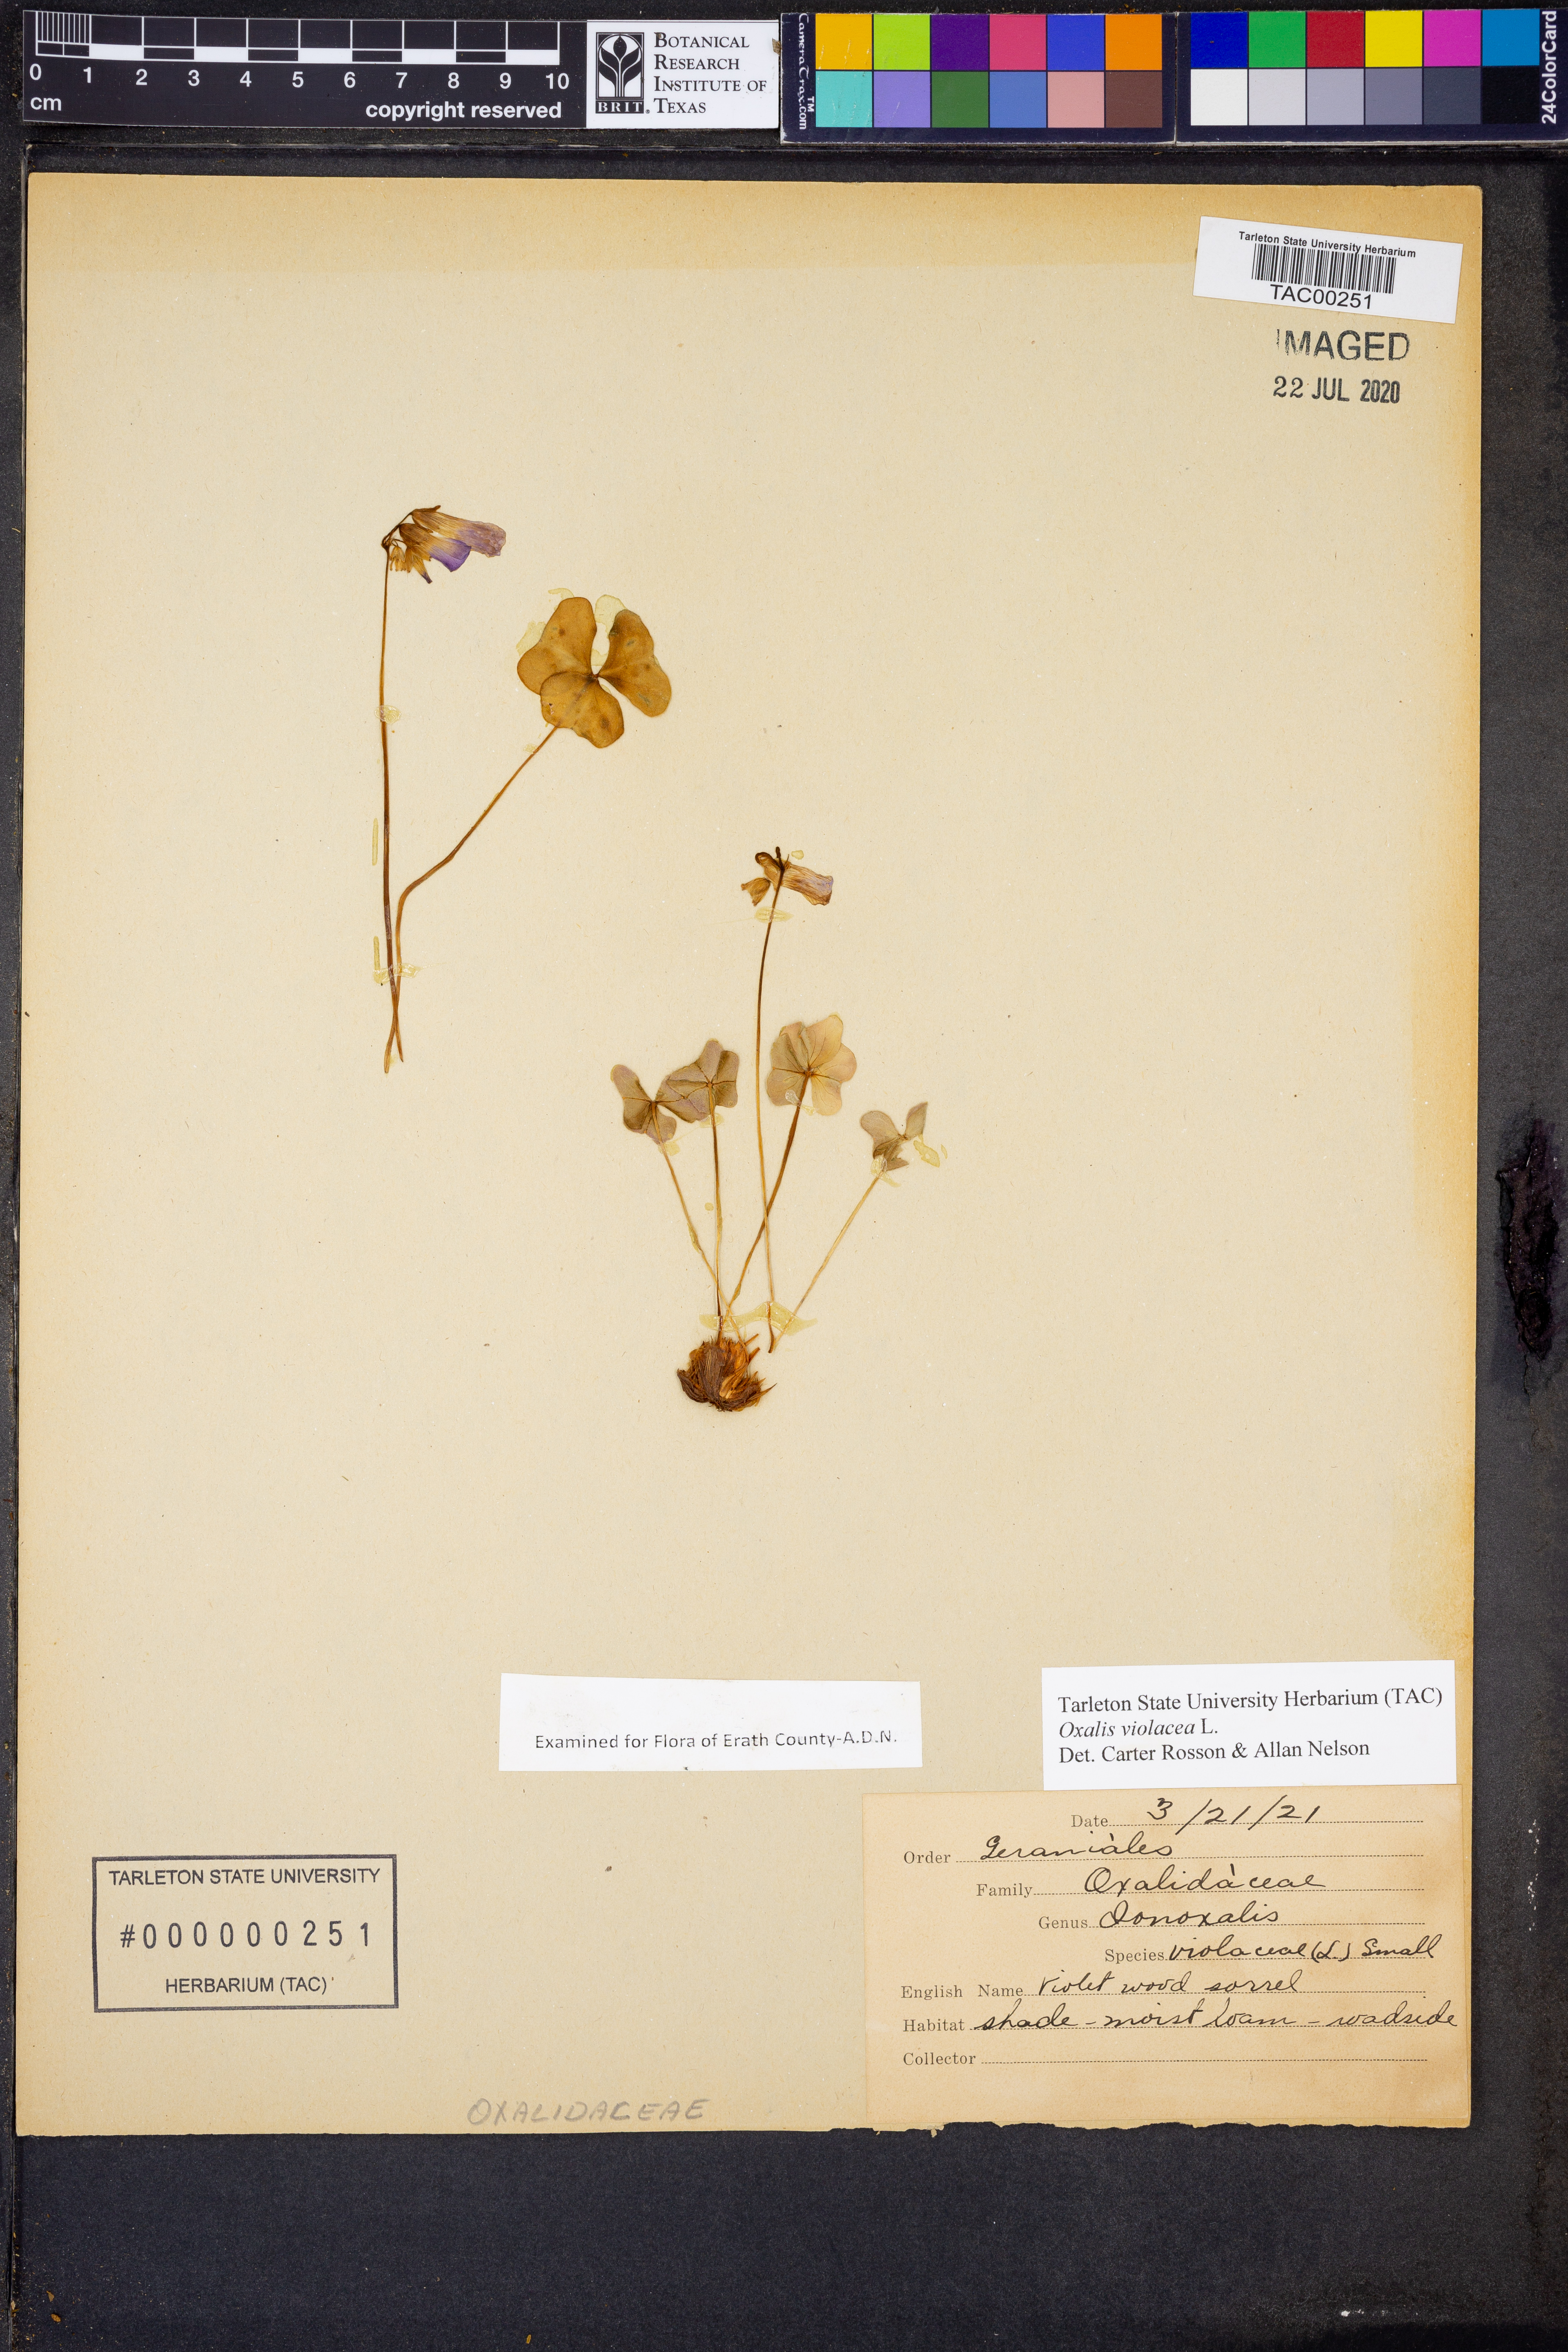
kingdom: Plantae
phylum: Tracheophyta
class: Magnoliopsida
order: Oxalidales
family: Oxalidaceae
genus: Oxalis
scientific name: Oxalis violacea
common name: Violet wood-sorrel
